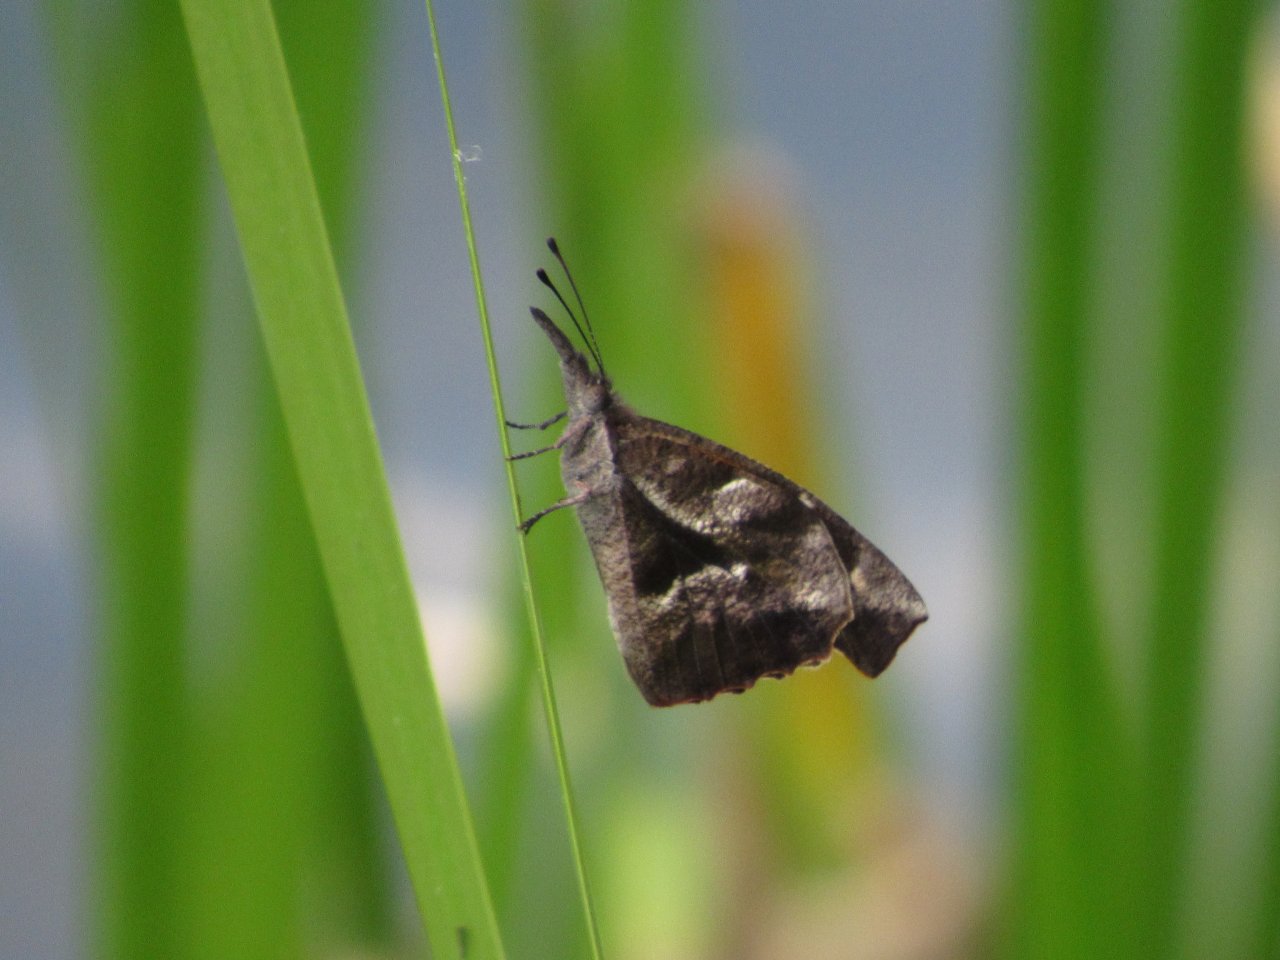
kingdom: Animalia
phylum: Arthropoda
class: Insecta
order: Lepidoptera
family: Nymphalidae
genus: Libytheana
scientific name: Libytheana carinenta
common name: American Snout
